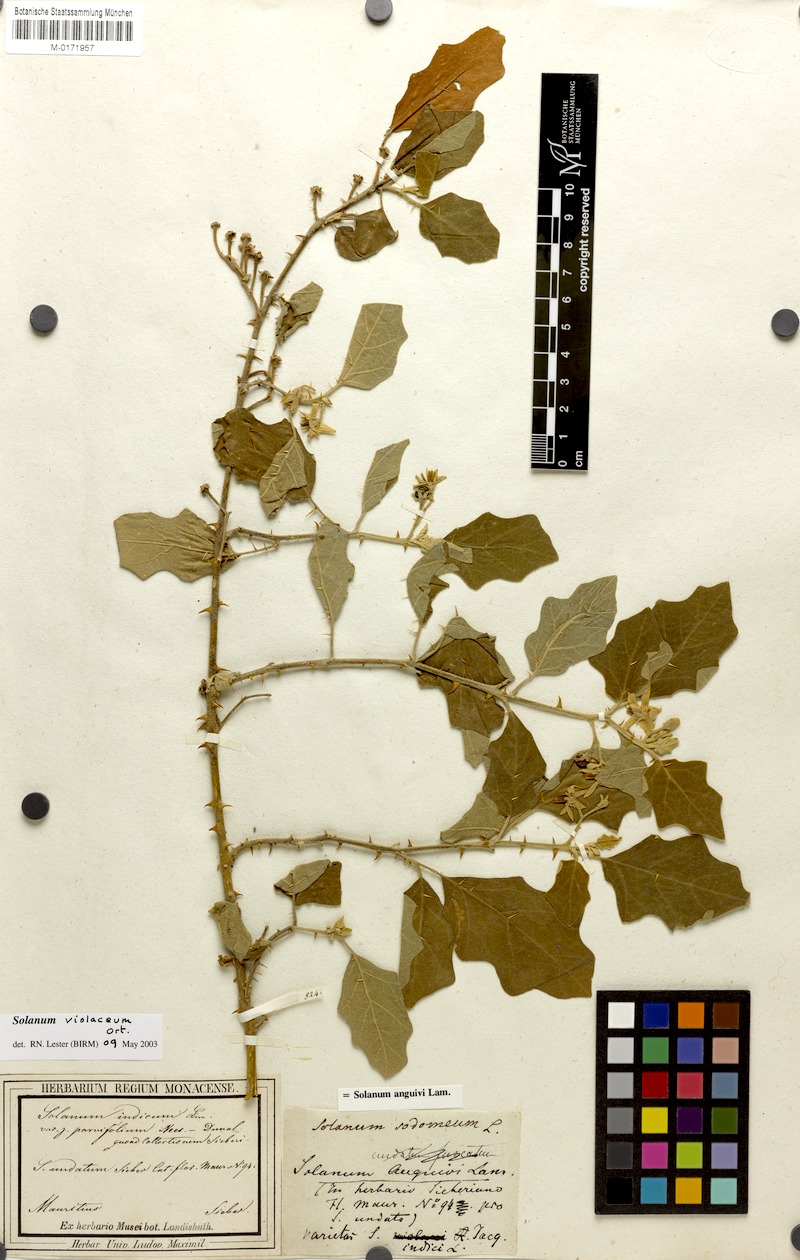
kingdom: Plantae
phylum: Tracheophyta
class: Magnoliopsida
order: Solanales
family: Solanaceae
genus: Solanum
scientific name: Solanum violaceum
